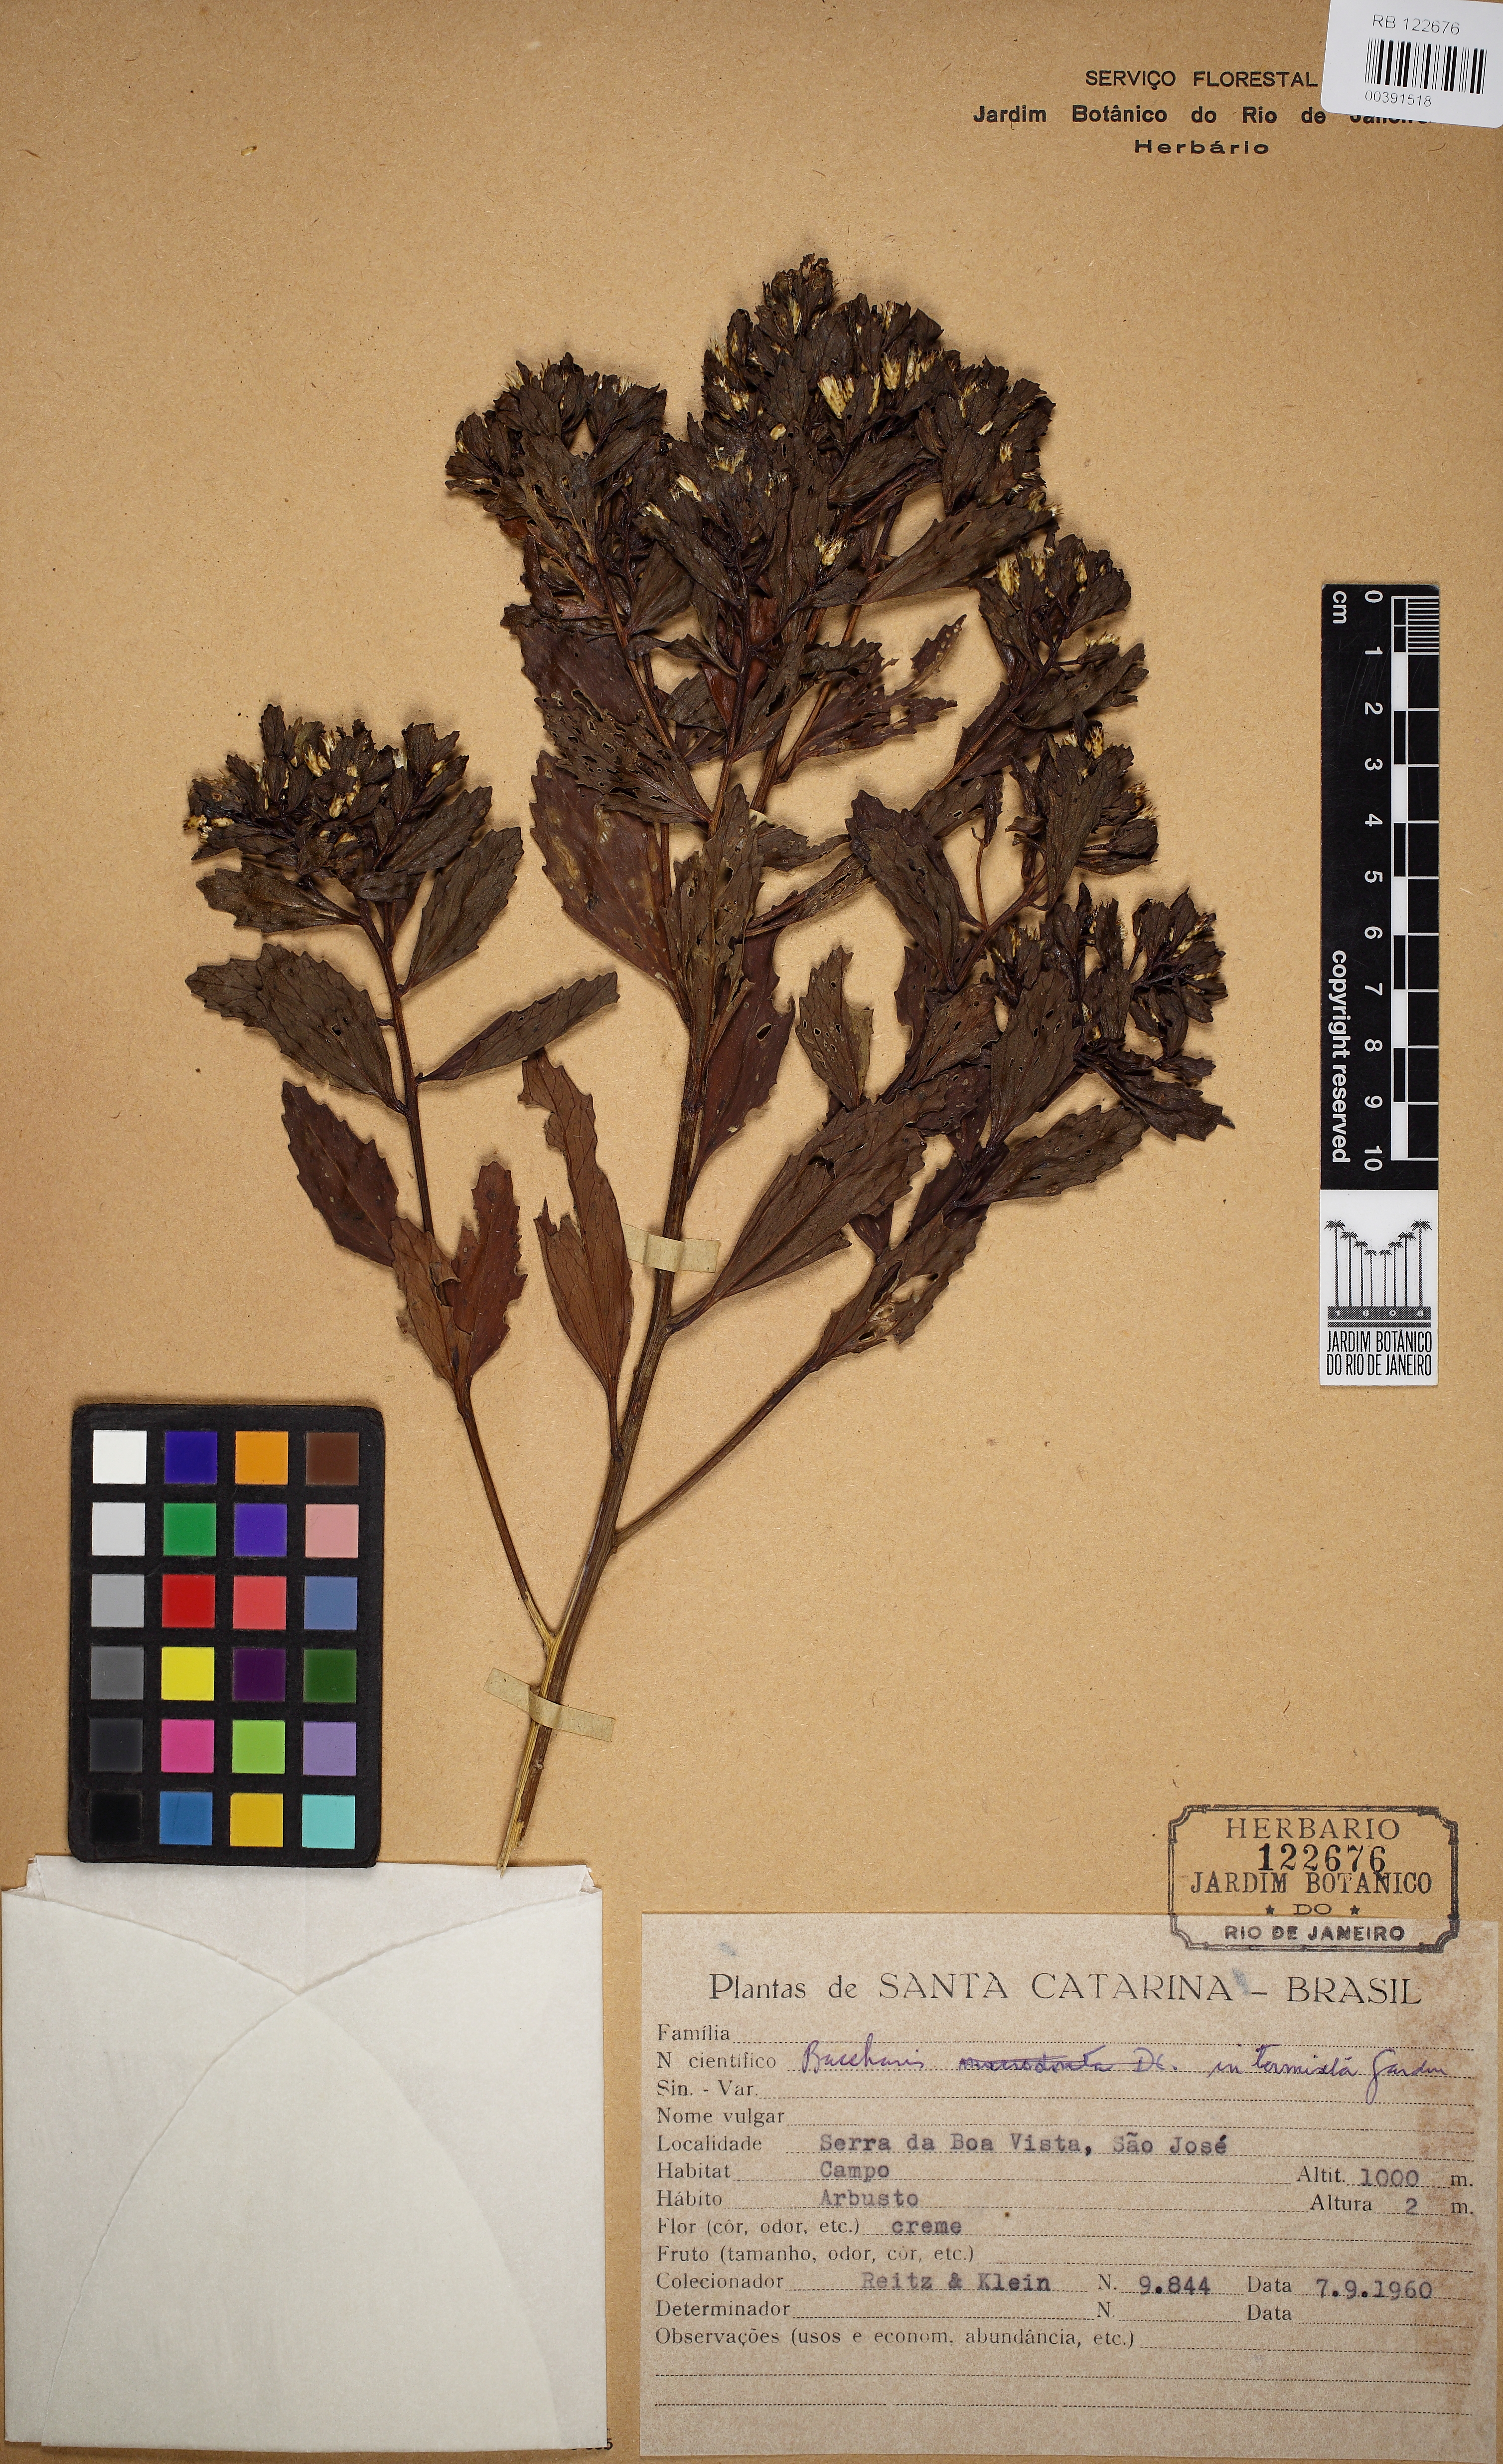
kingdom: Plantae
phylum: Tracheophyta
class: Magnoliopsida
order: Asterales
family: Asteraceae
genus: Baccharis
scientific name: Baccharis intermixta
